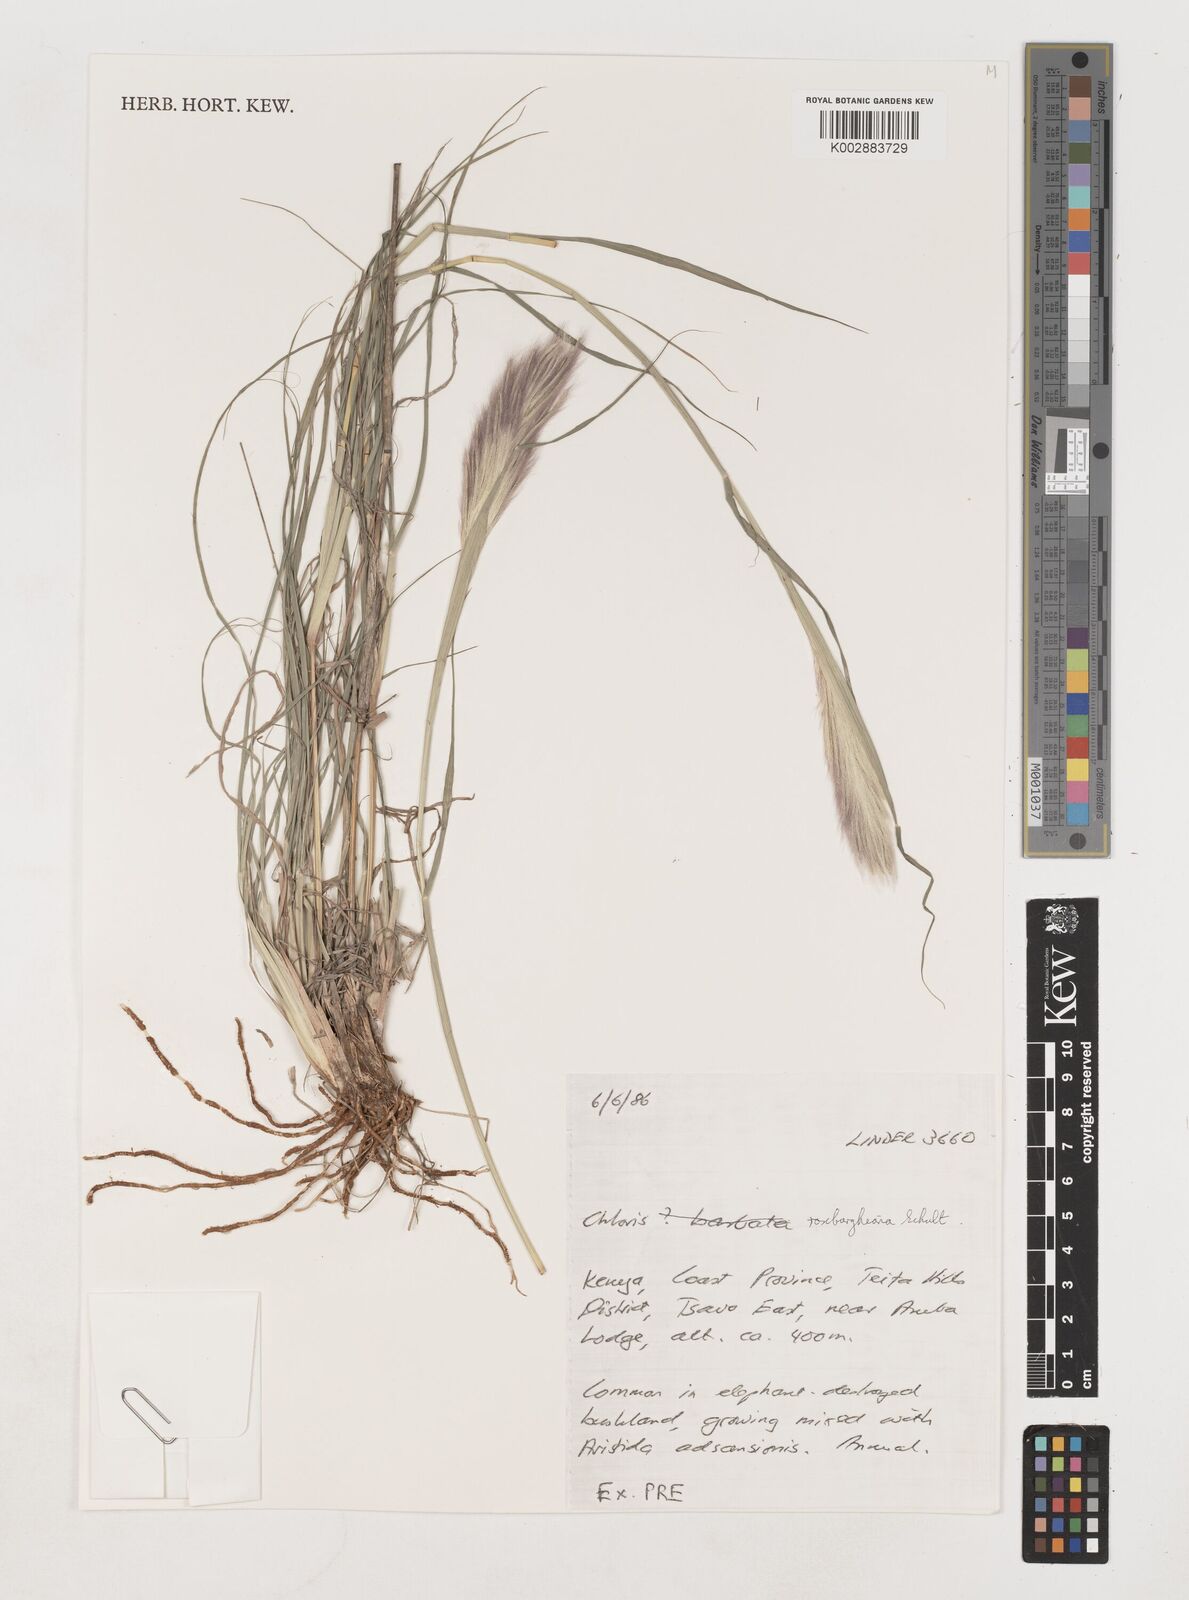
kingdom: Plantae
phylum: Tracheophyta
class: Liliopsida
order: Poales
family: Poaceae
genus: Tetrapogon
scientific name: Tetrapogon roxburghiana
